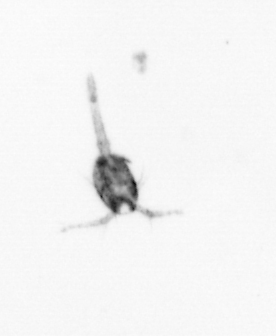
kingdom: Animalia
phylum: Arthropoda
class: Copepoda
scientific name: Copepoda
